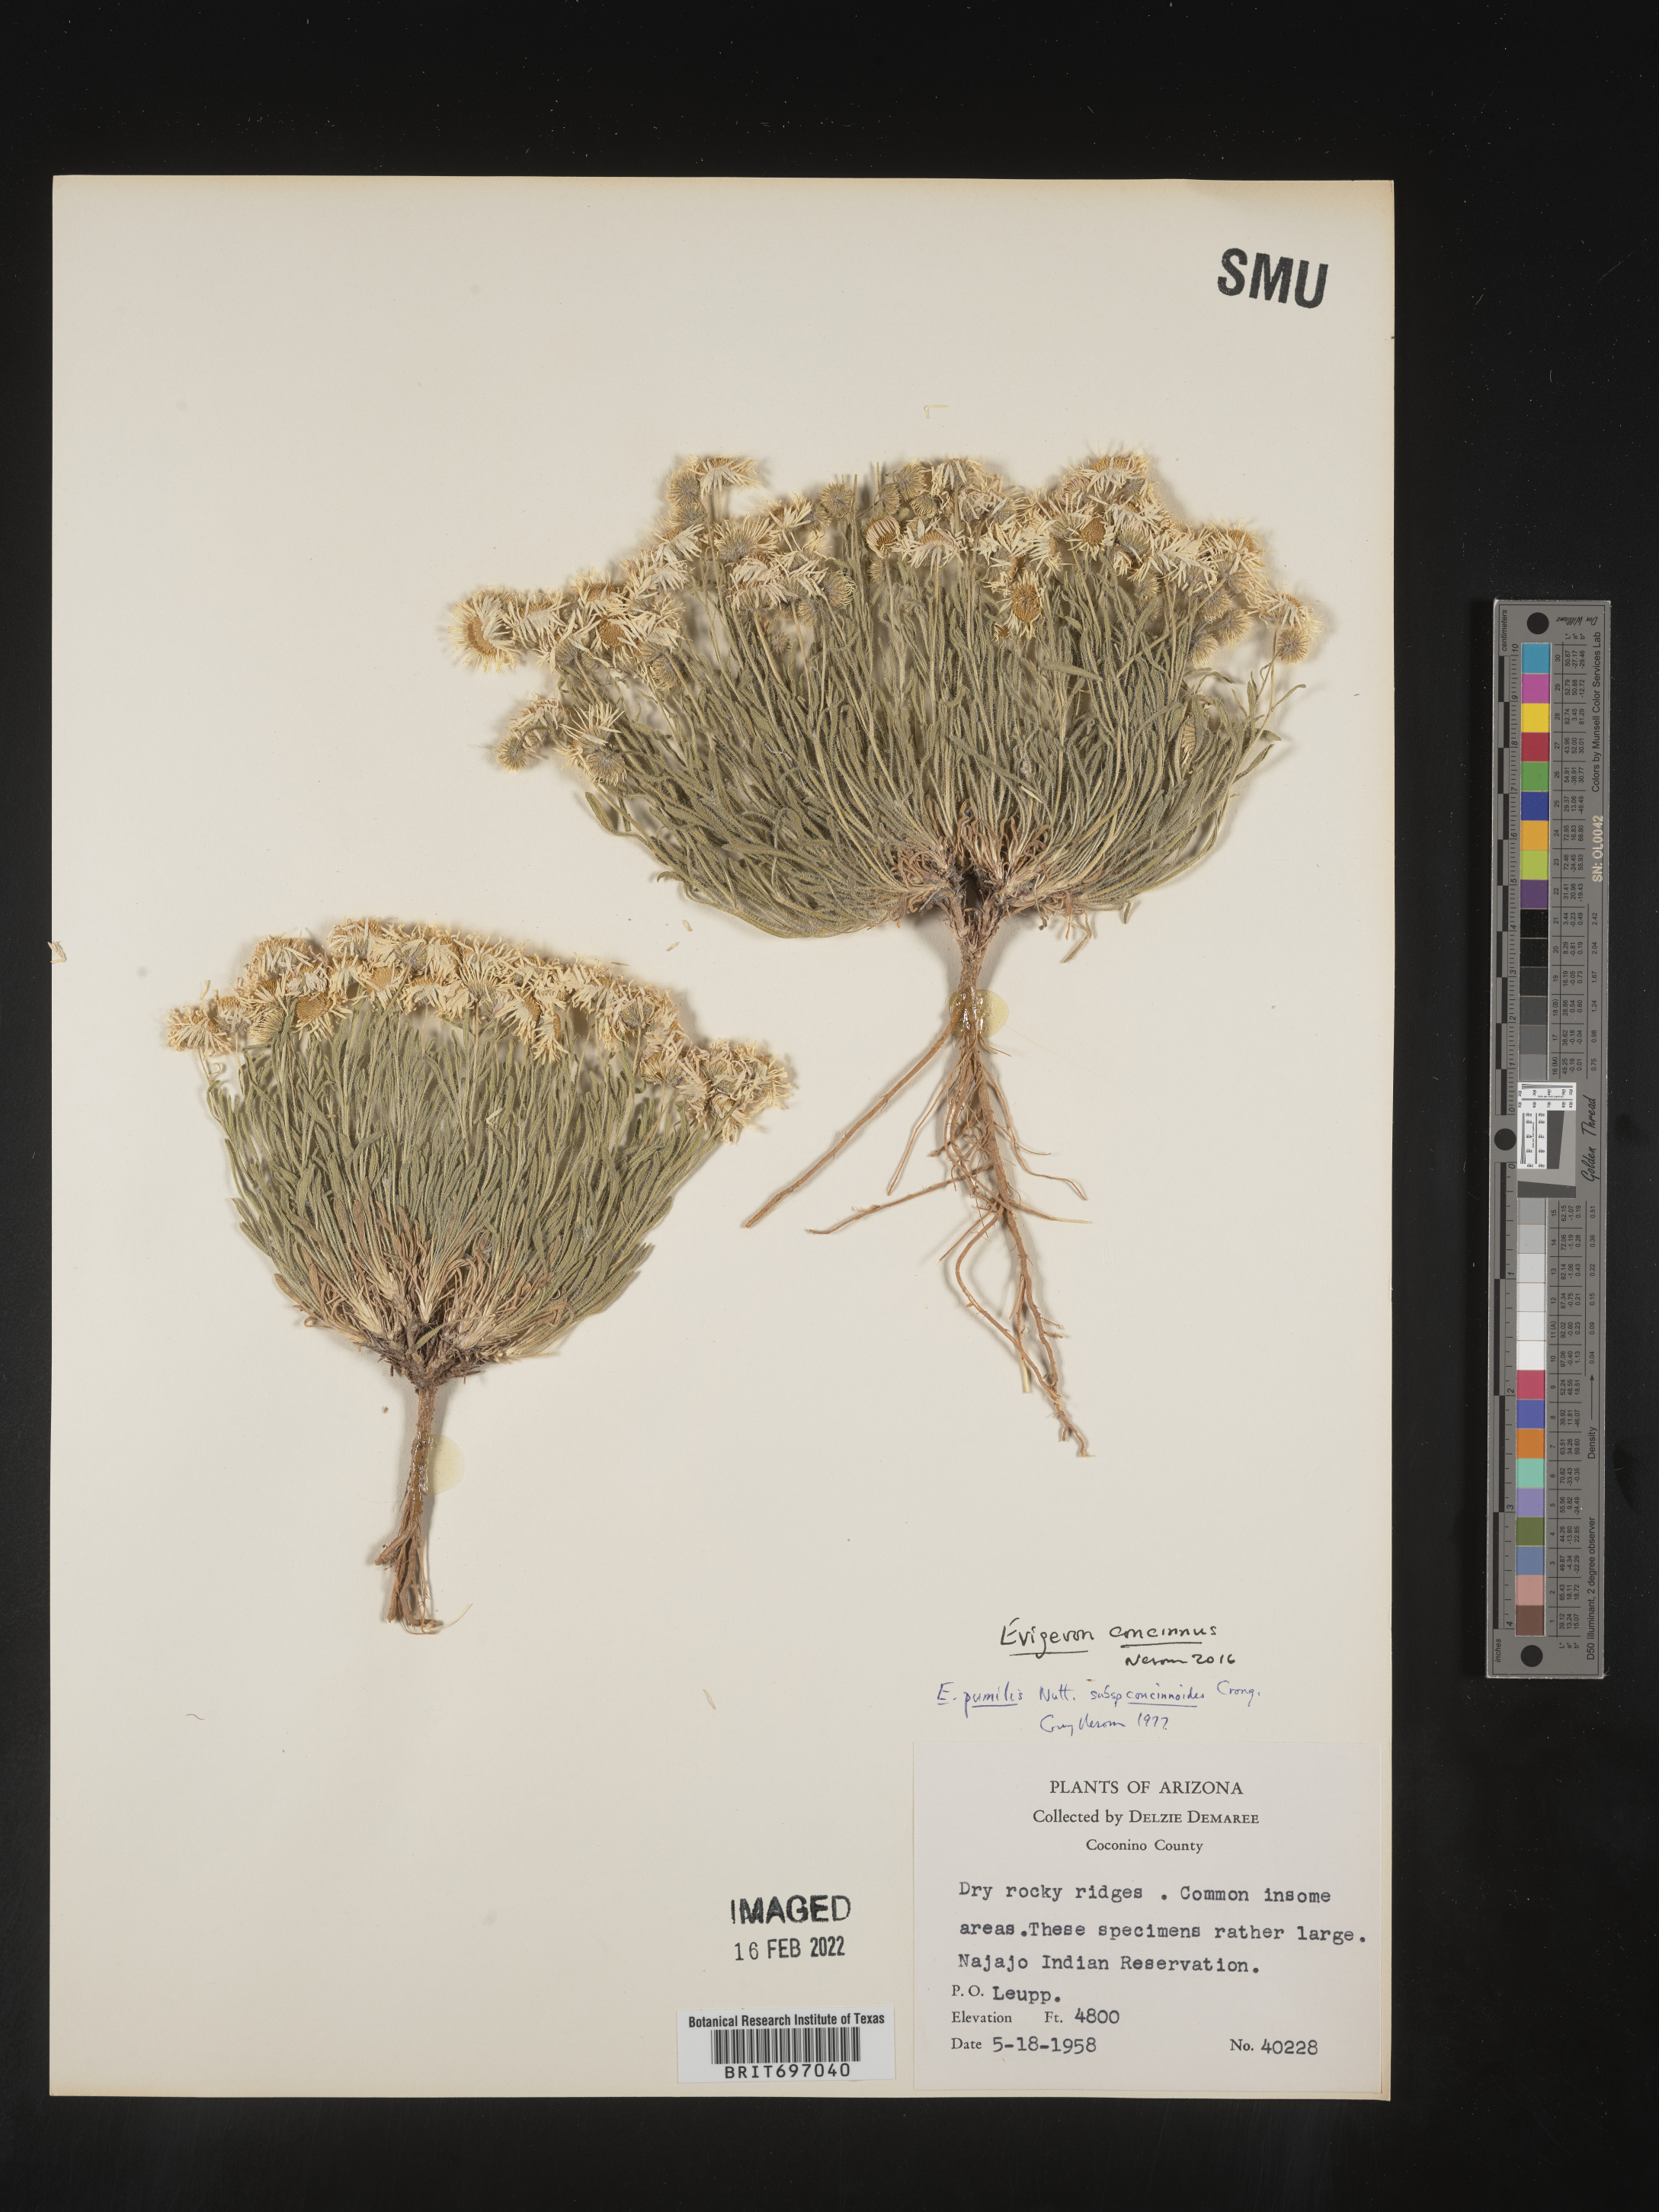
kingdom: Plantae
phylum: Tracheophyta
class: Magnoliopsida
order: Asterales
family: Asteraceae
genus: Erigeron
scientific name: Erigeron concinnus
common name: Navajo fleabane
